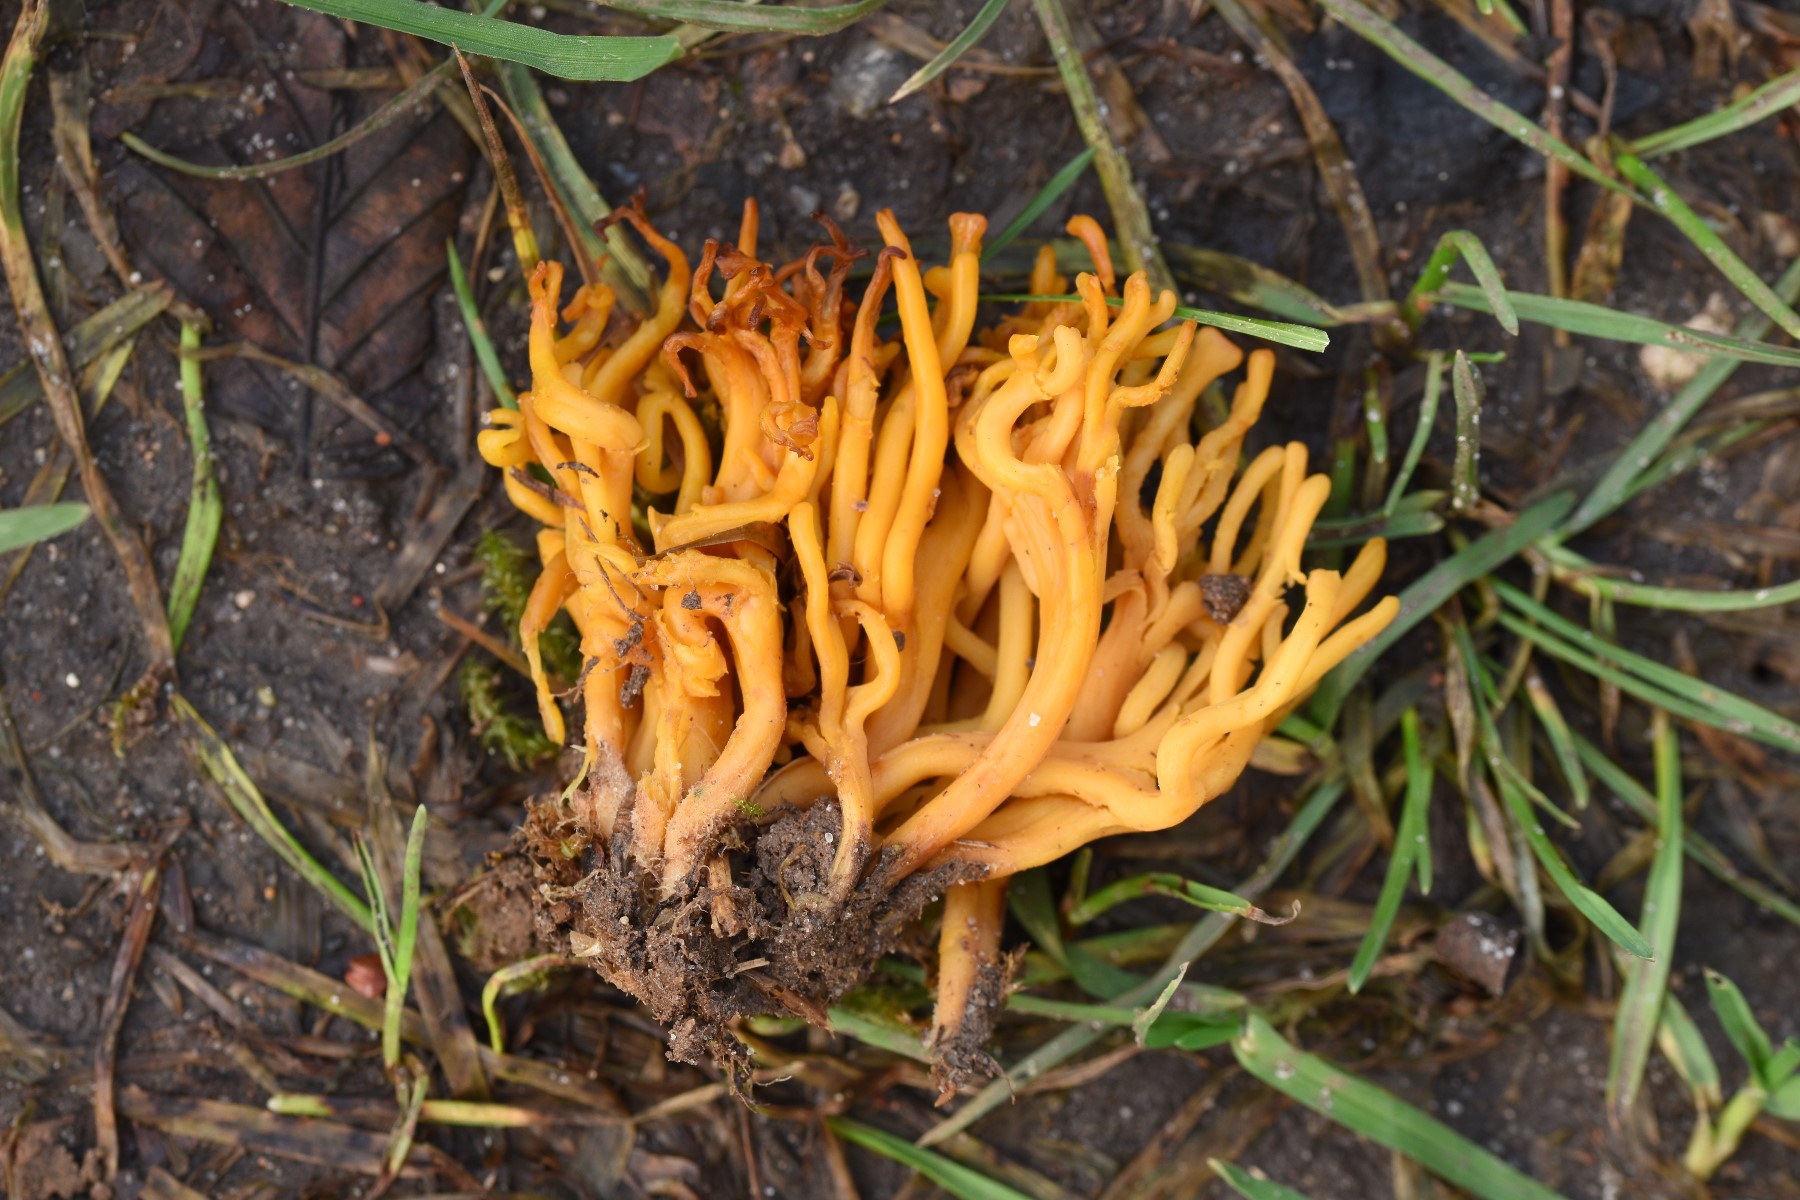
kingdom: Fungi
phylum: Basidiomycota
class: Agaricomycetes
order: Agaricales
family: Clavariaceae
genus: Clavulinopsis
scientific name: Clavulinopsis corniculata
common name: eng-køllesvamp
